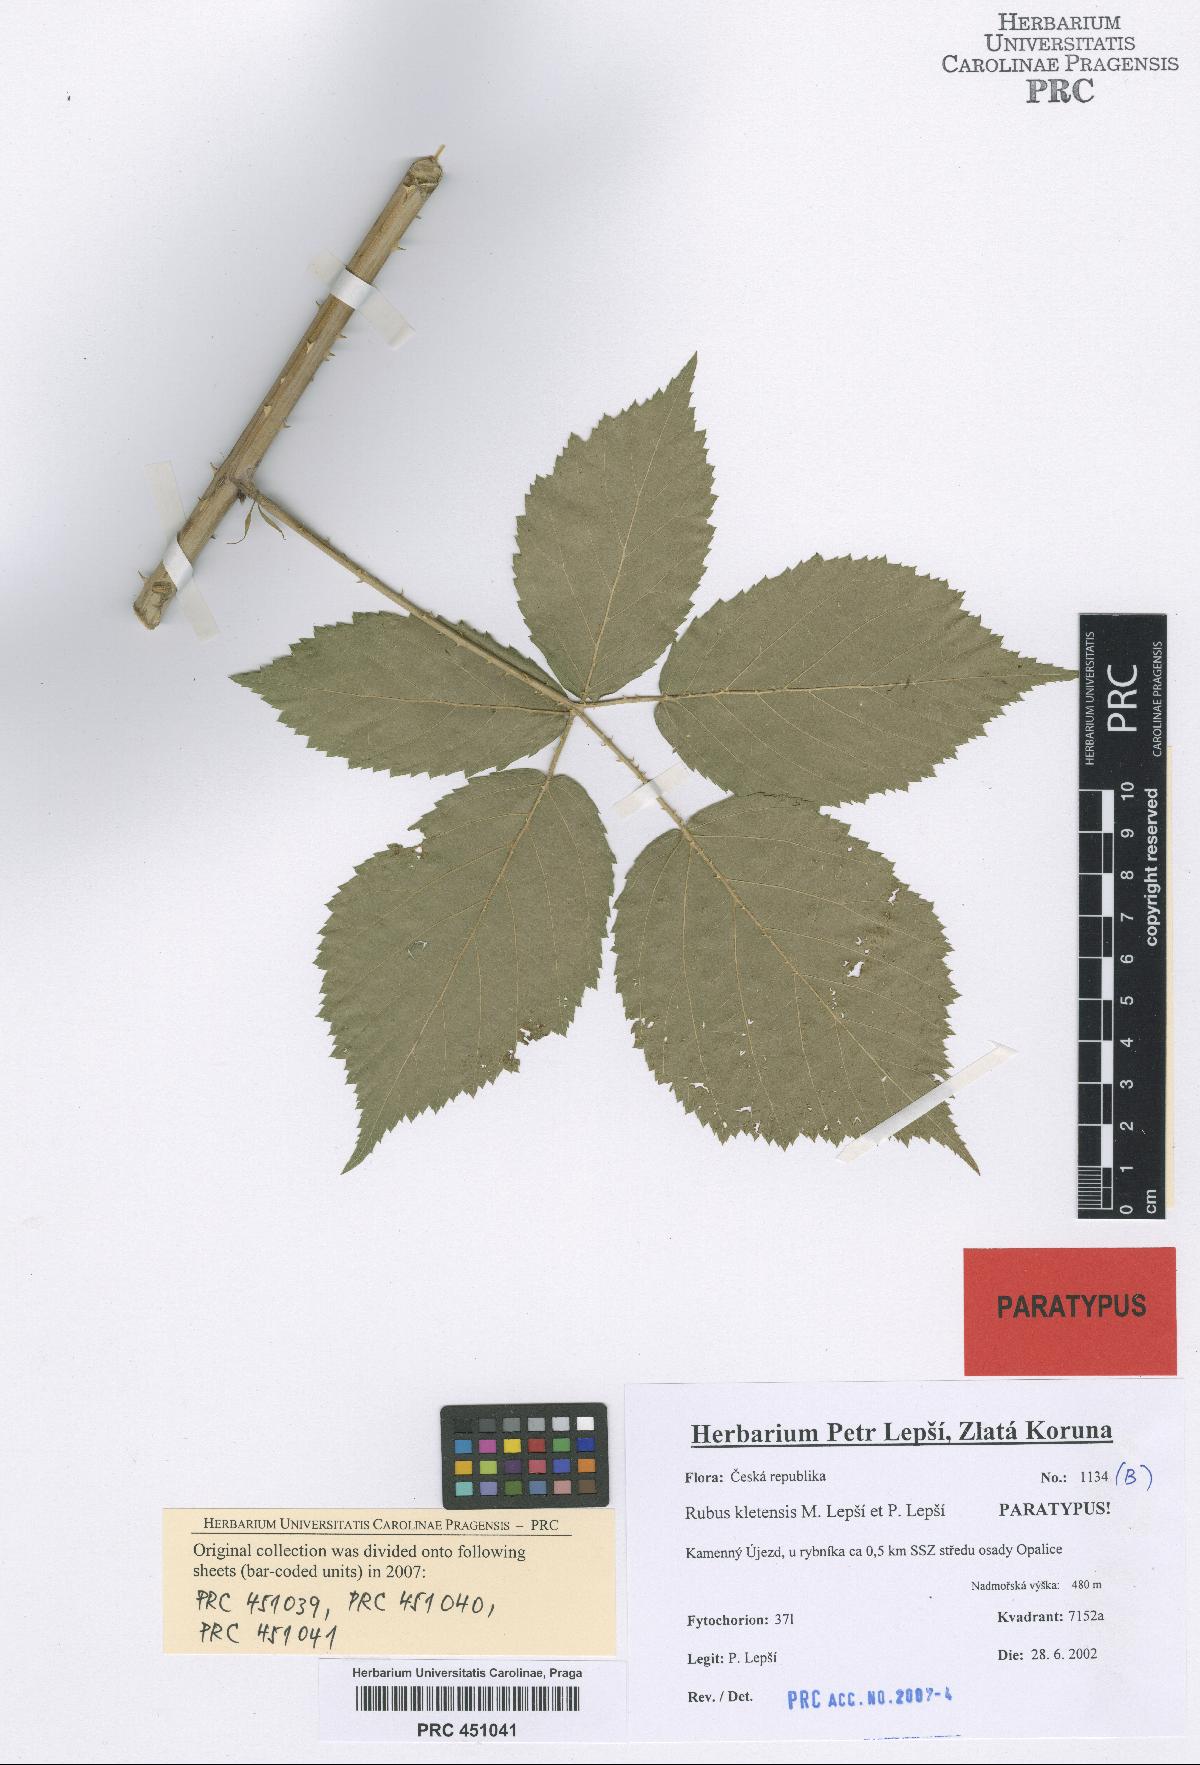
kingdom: Plantae
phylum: Tracheophyta
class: Magnoliopsida
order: Rosales
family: Rosaceae
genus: Rubus
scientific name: Rubus kletensis
